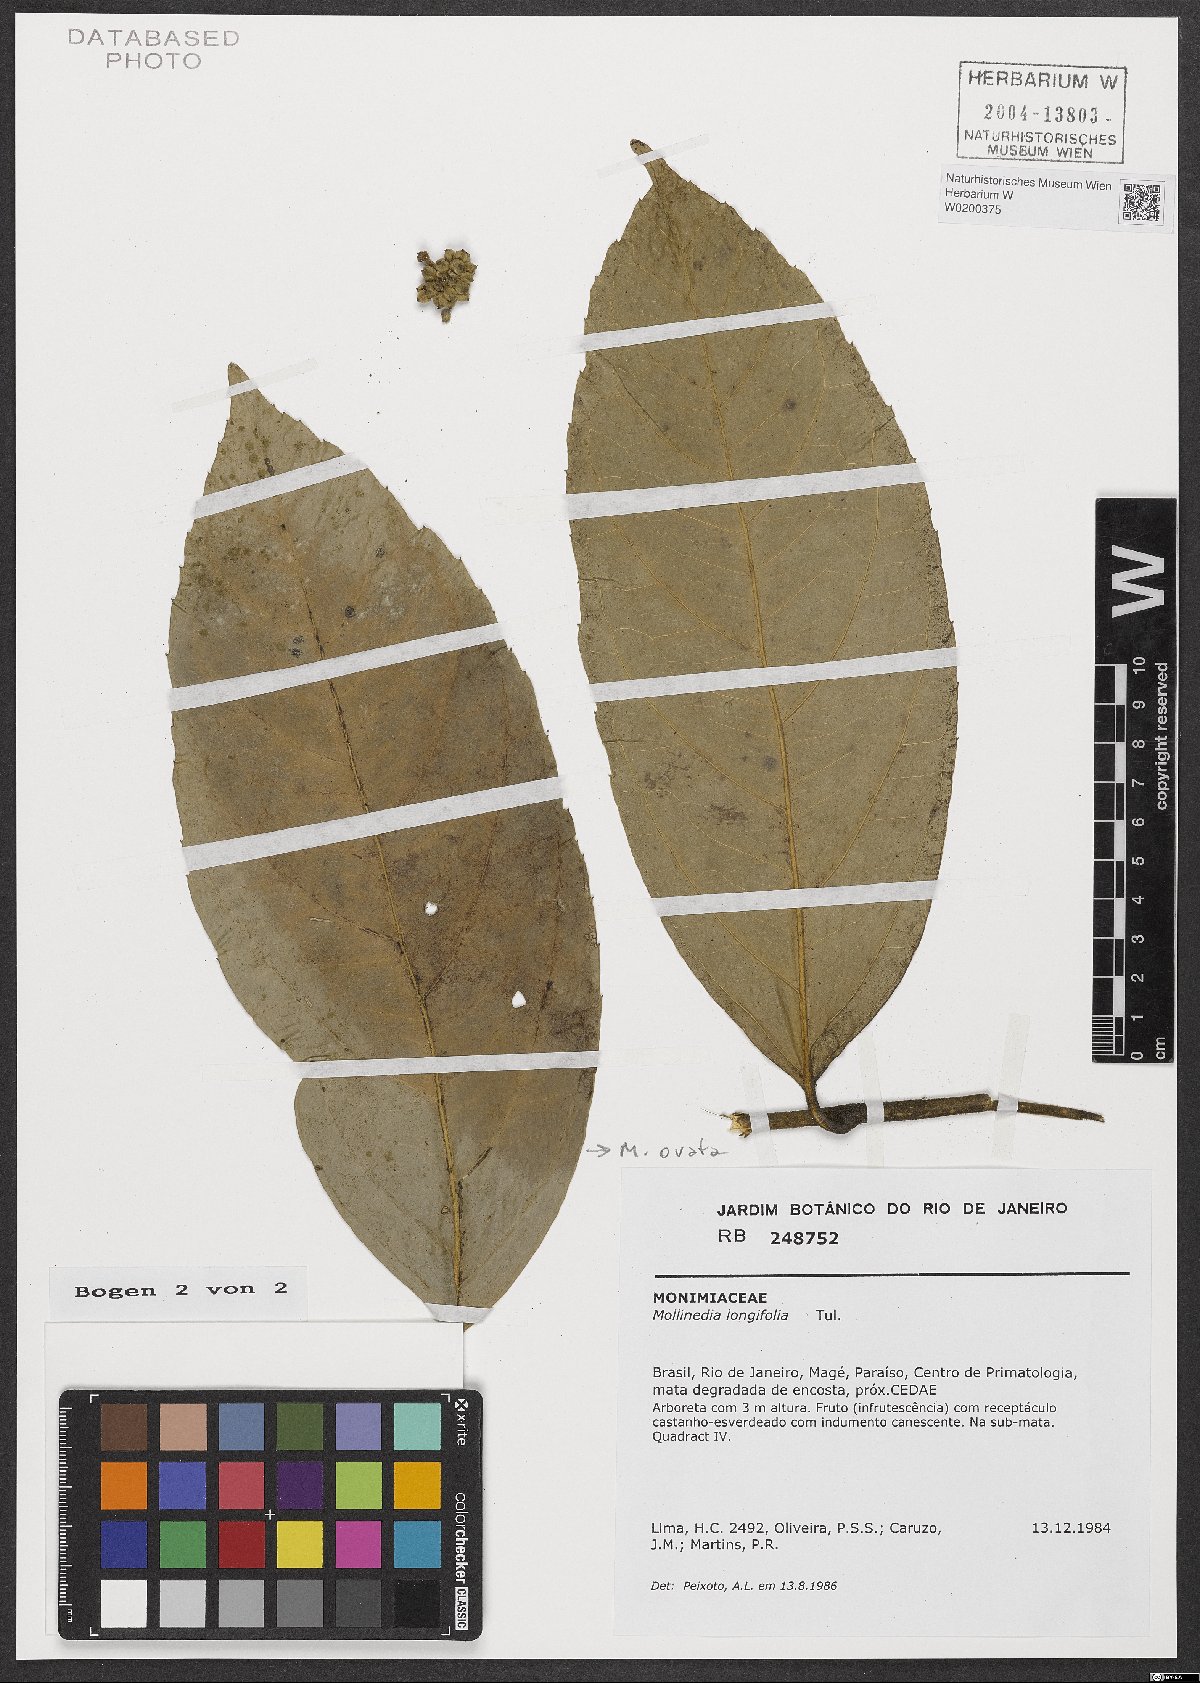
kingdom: Plantae
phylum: Tracheophyta
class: Magnoliopsida
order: Laurales
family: Monimiaceae
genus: Mollinedia
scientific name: Mollinedia ovata
